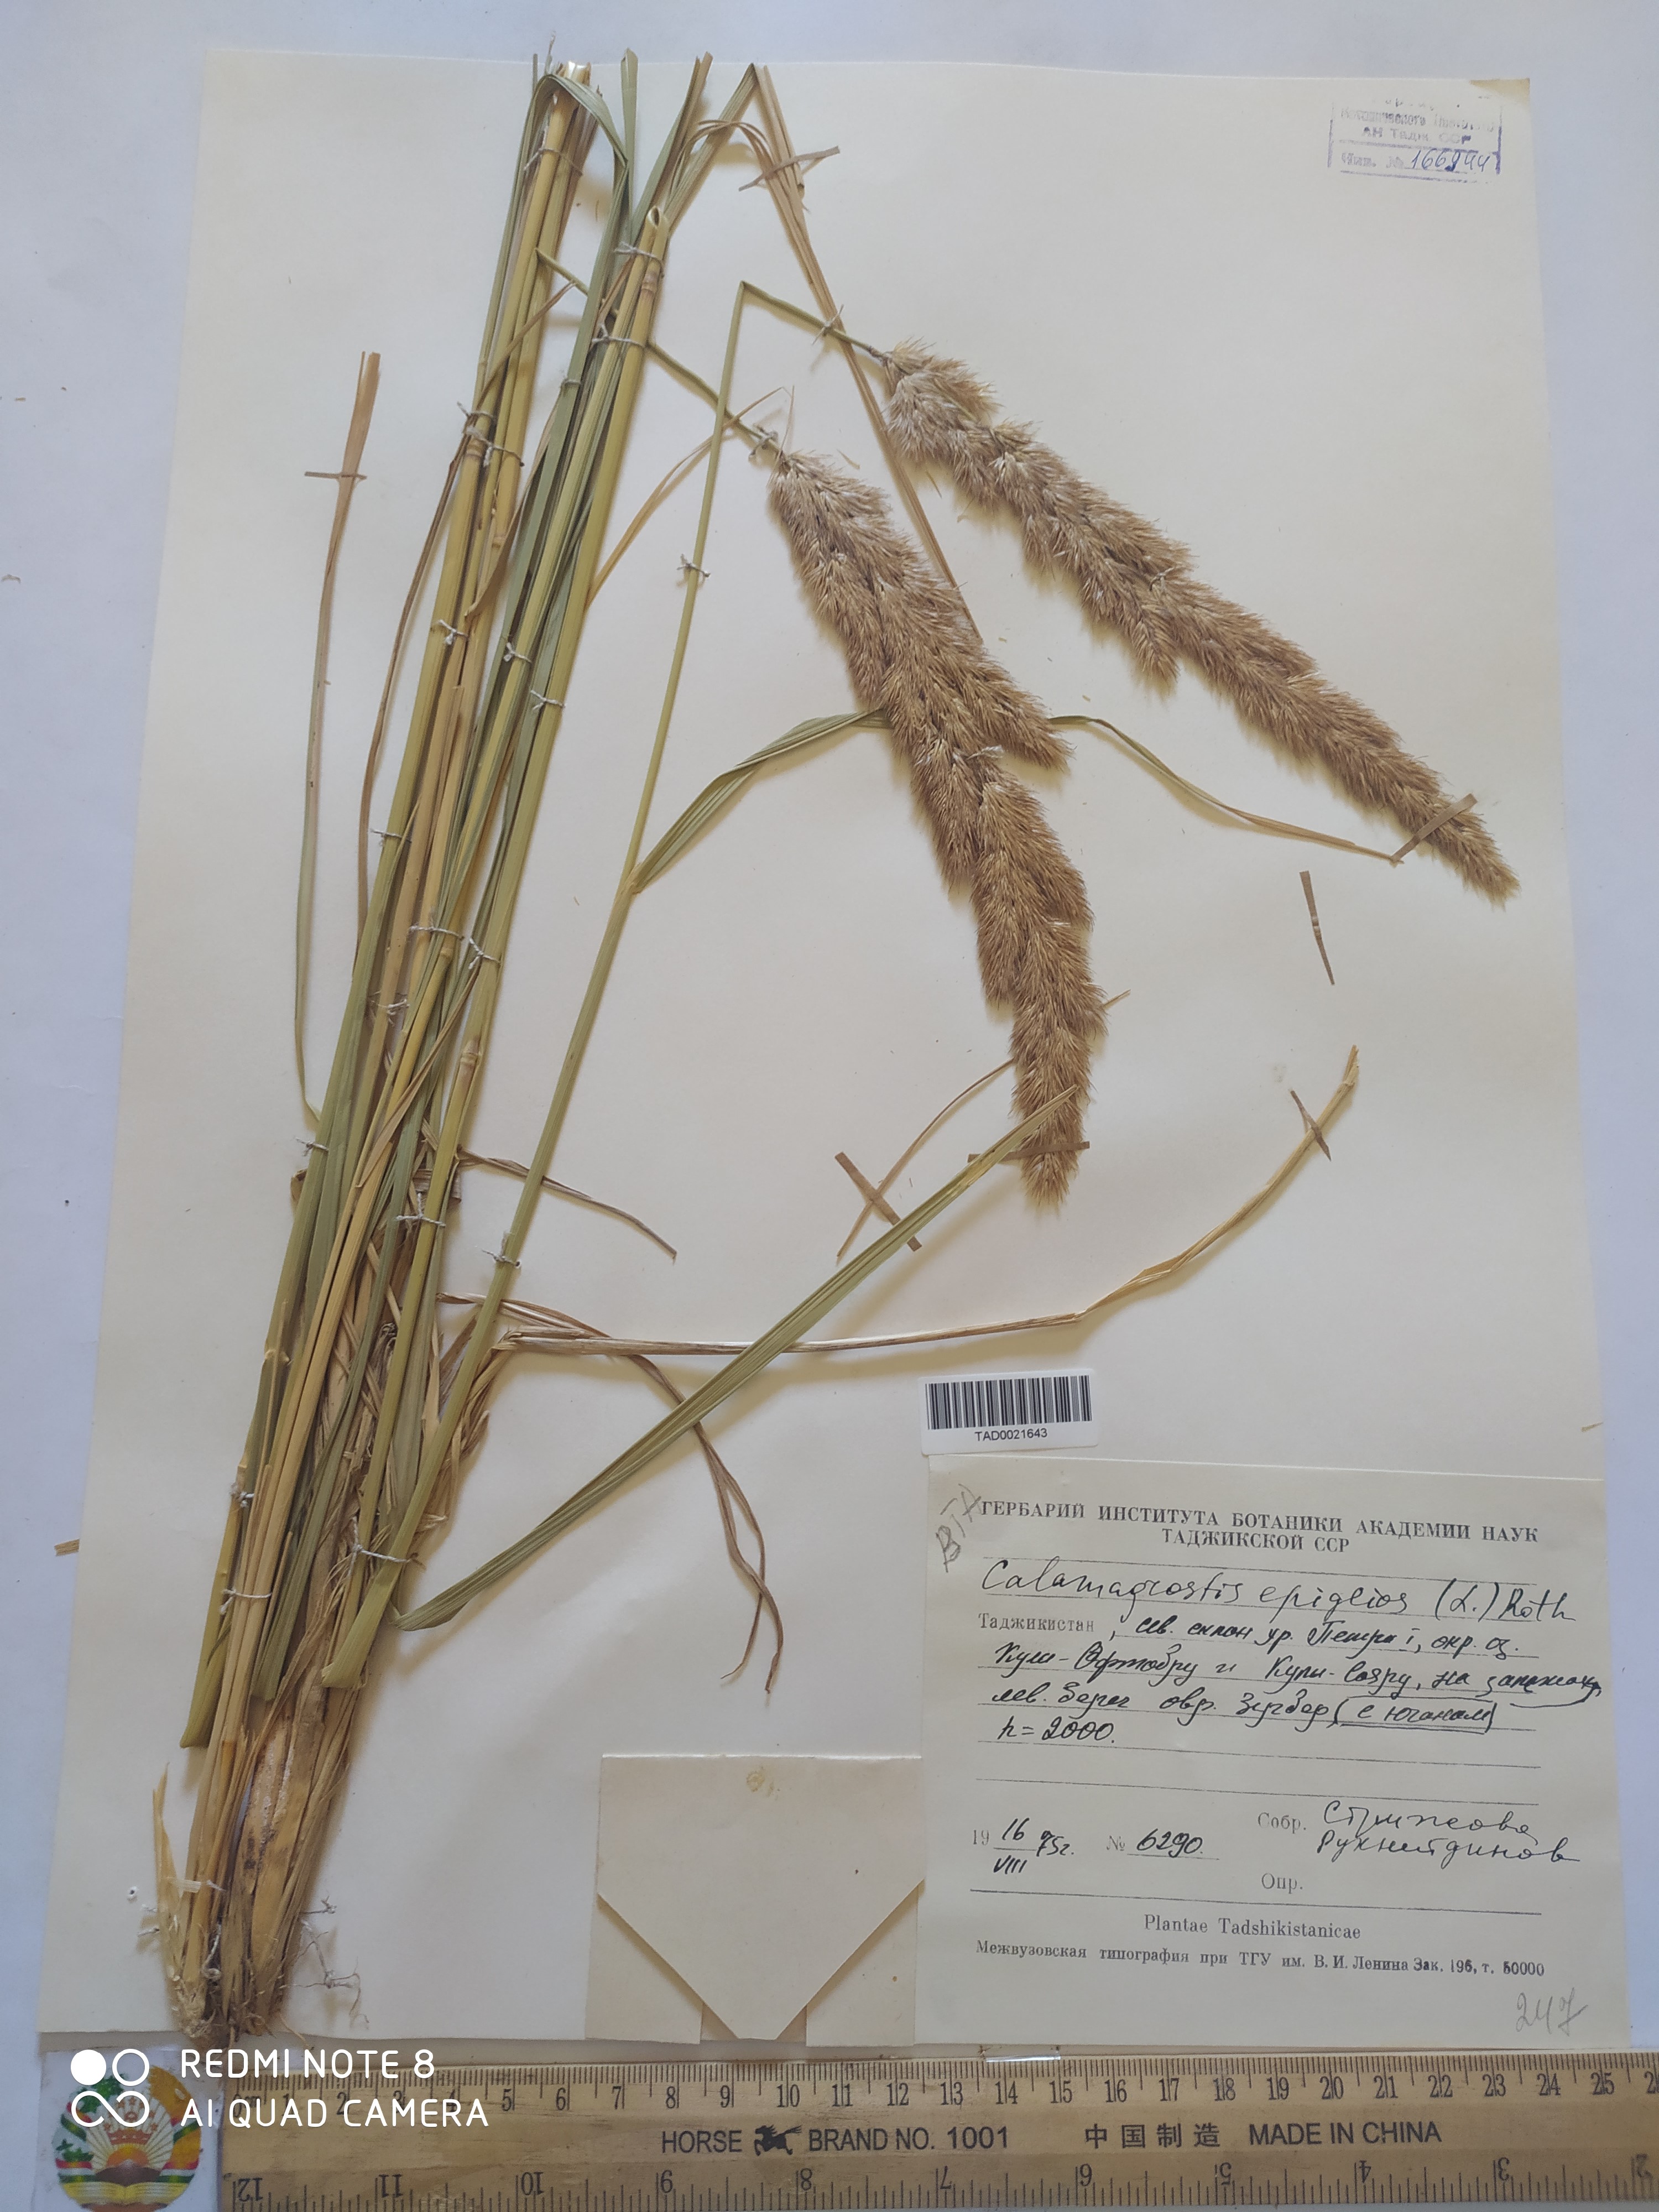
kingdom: Plantae
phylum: Tracheophyta
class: Liliopsida
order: Poales
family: Poaceae
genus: Calamagrostis
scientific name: Calamagrostis epigejos
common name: Wood small-reed
